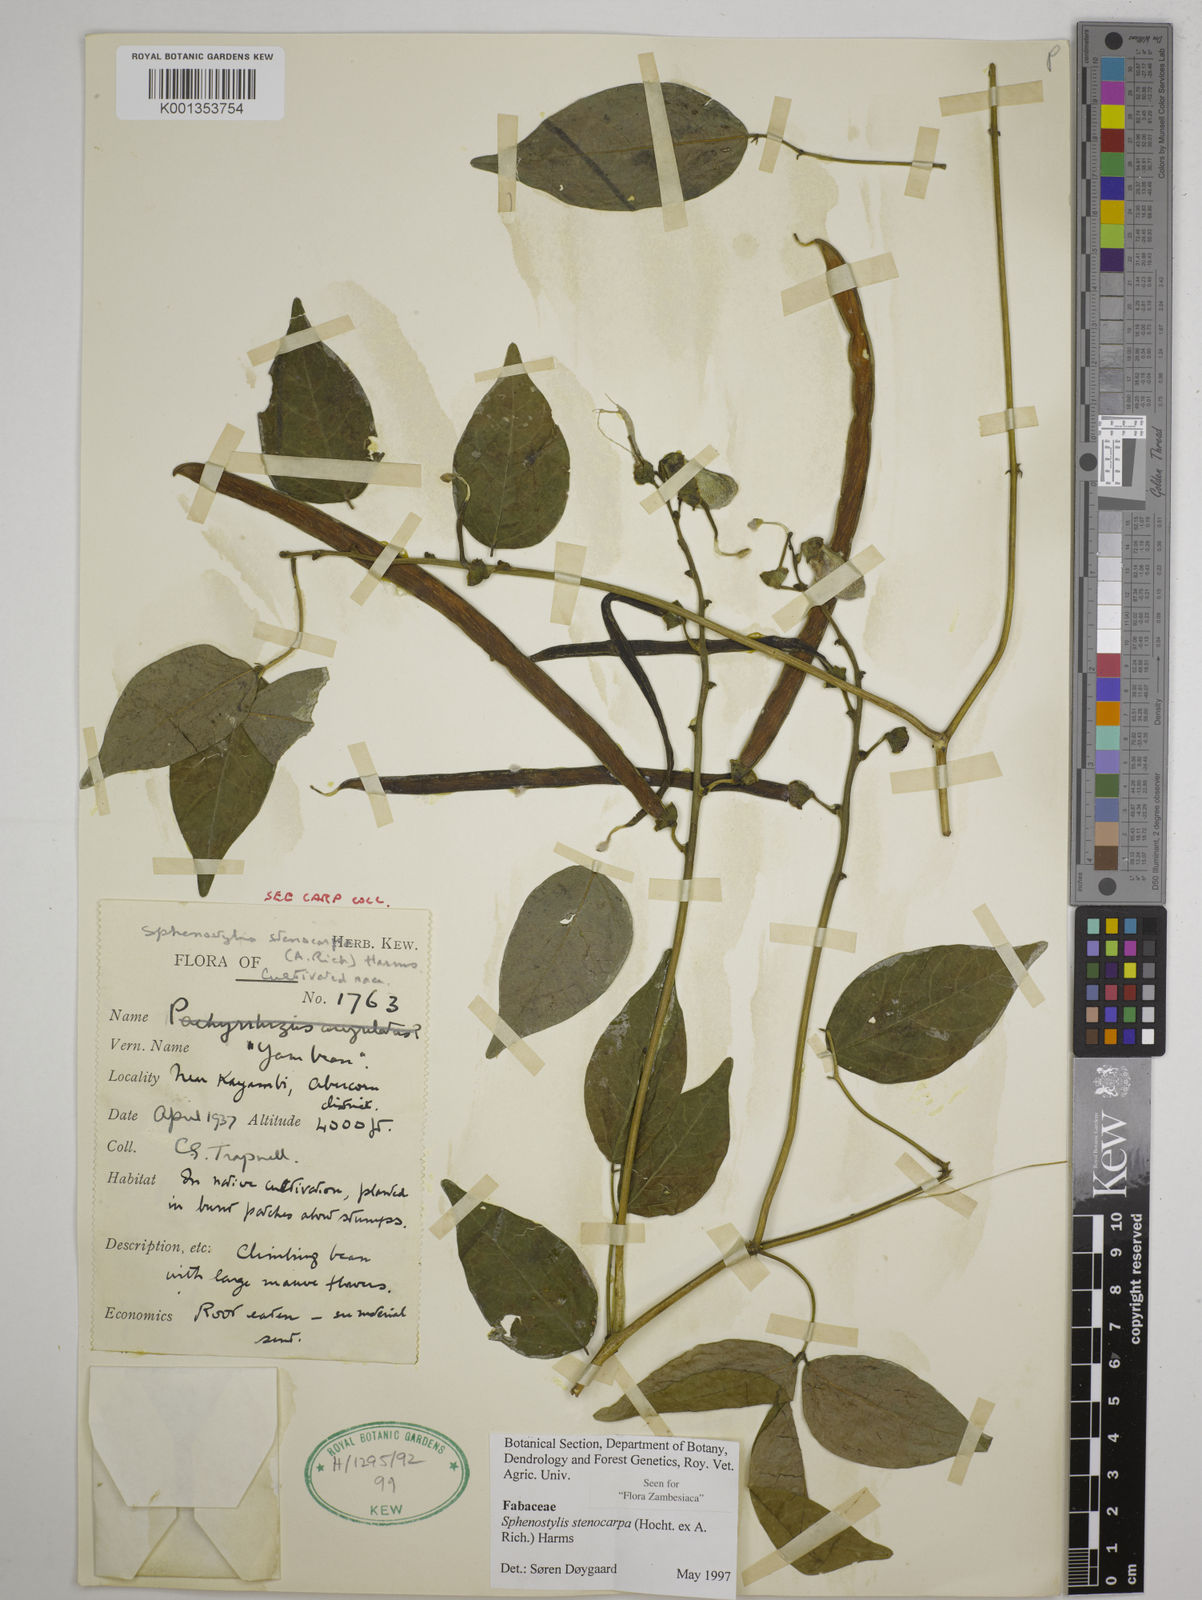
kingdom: Plantae
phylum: Tracheophyta
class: Magnoliopsida
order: Fabales
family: Fabaceae
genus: Sphenostylis
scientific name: Sphenostylis stenocarpa
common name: Yam-pea
